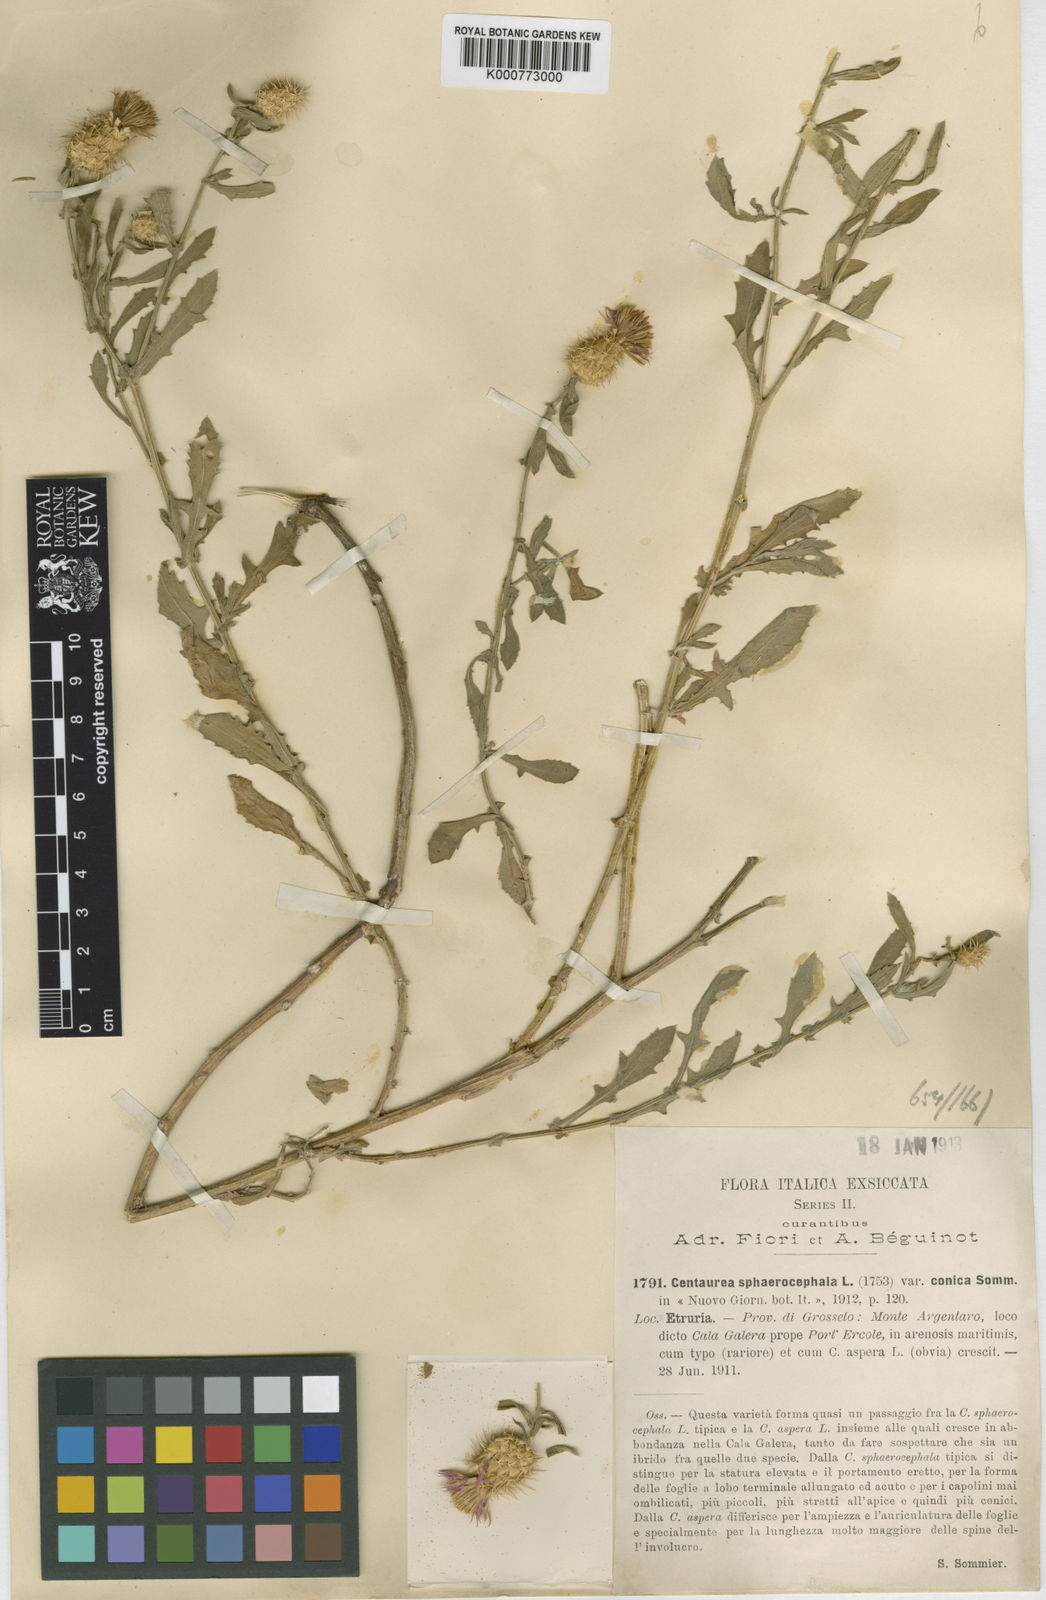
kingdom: Plantae
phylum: Tracheophyta
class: Magnoliopsida
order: Asterales
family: Asteraceae
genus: Centaurea
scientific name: Centaurea sphaerocephala
